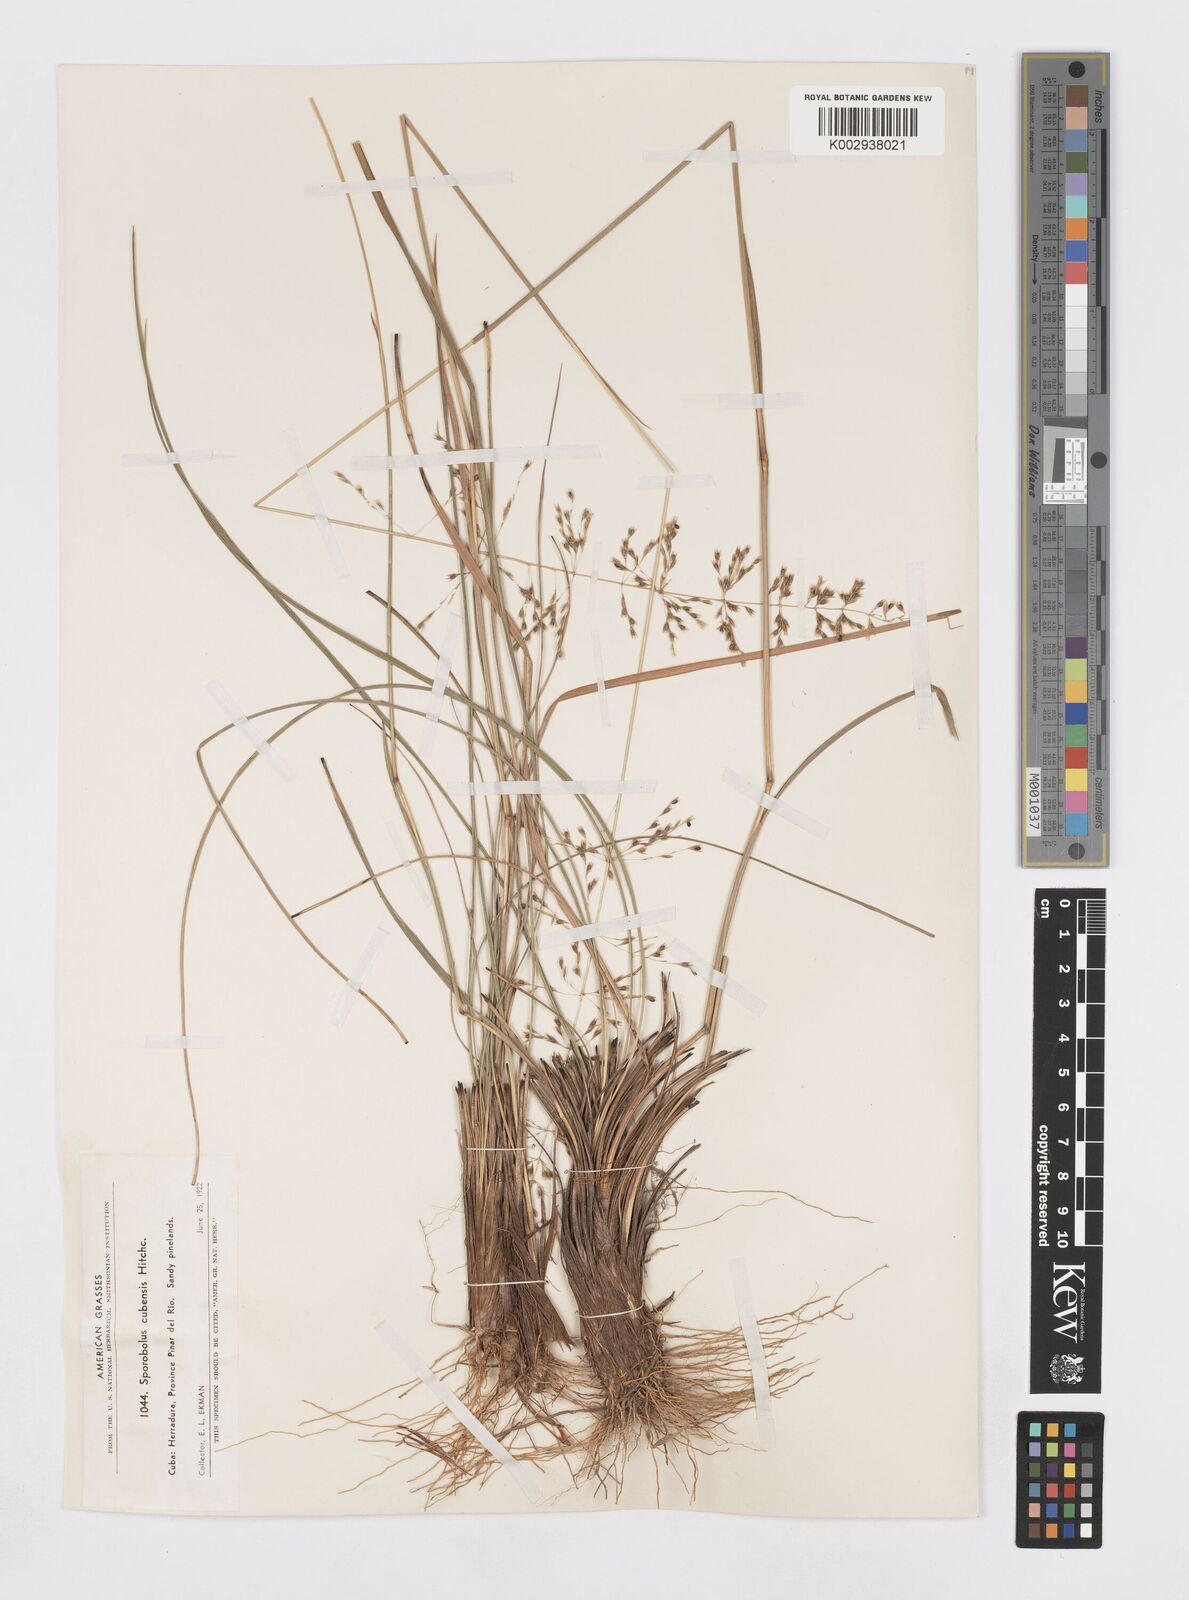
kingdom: Plantae
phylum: Tracheophyta
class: Liliopsida
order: Poales
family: Poaceae
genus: Sporobolus
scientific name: Sporobolus cubensis
